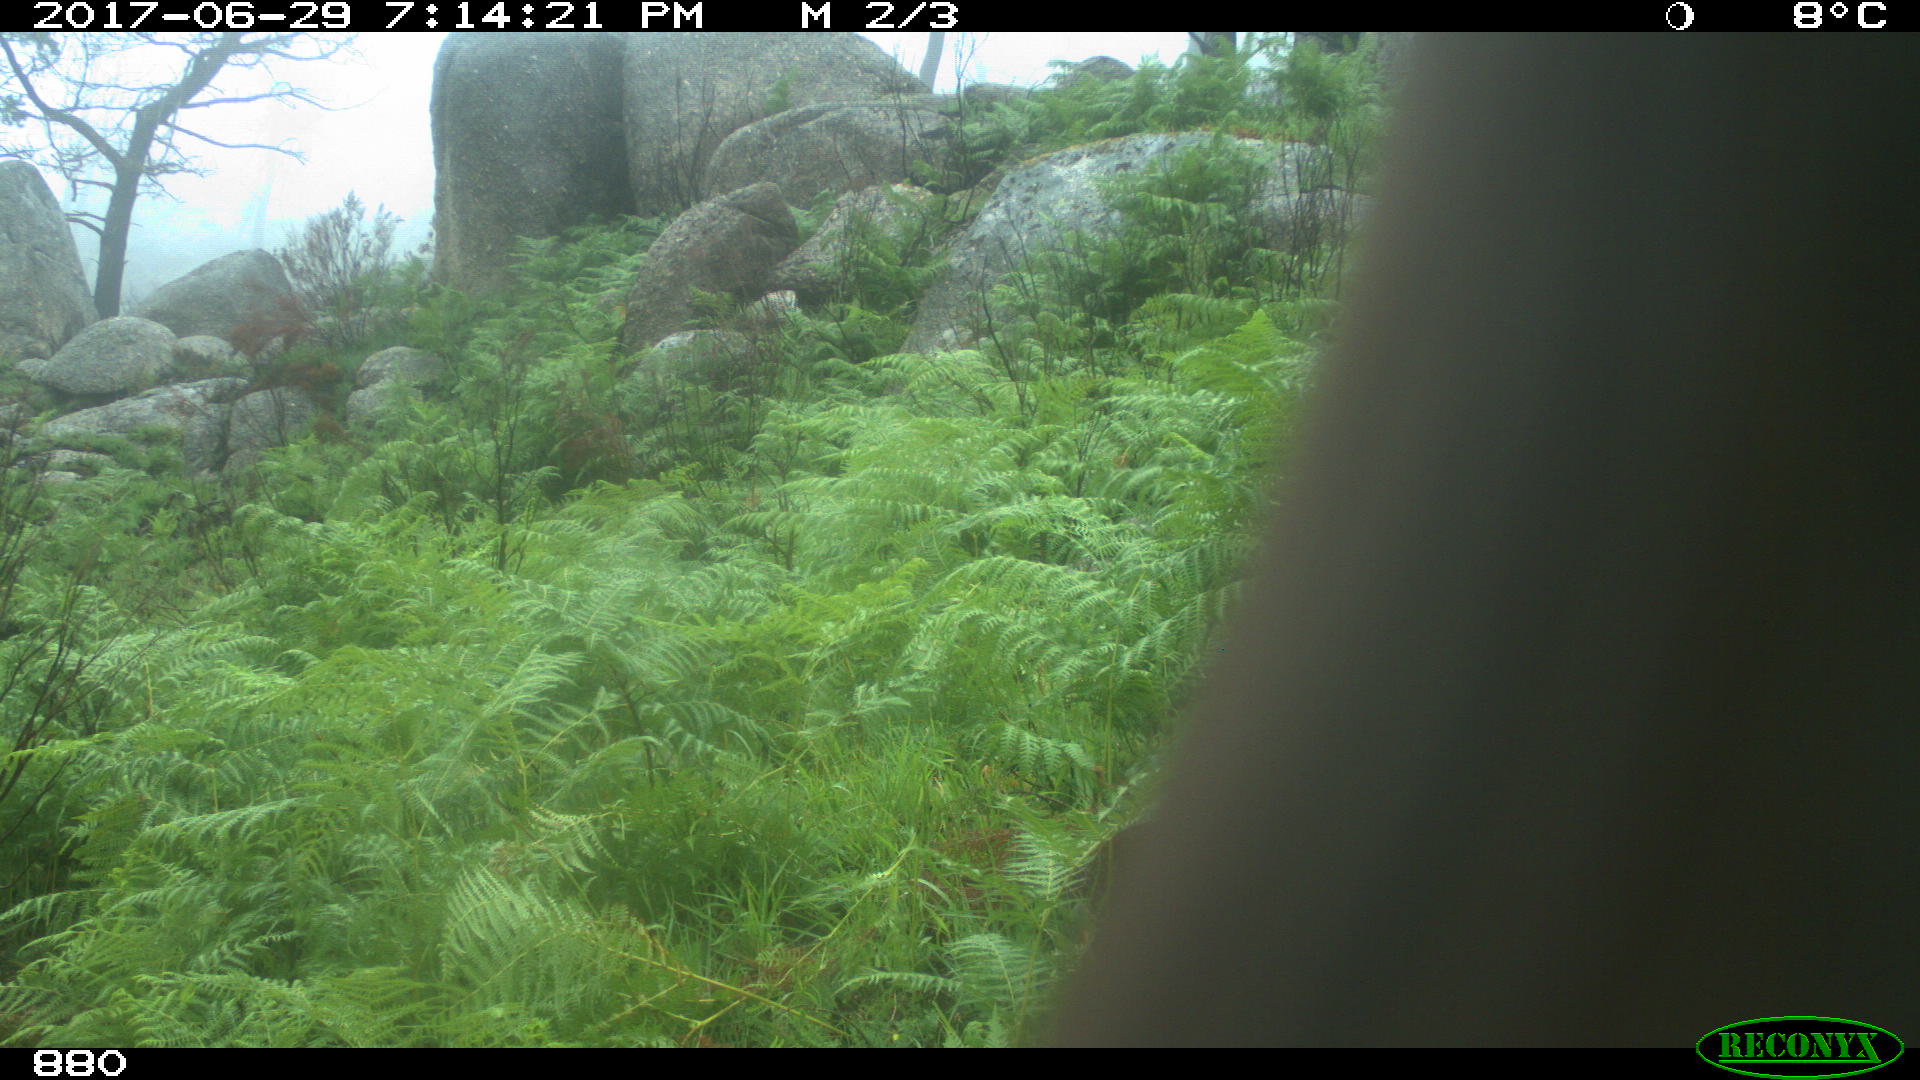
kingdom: Animalia
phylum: Chordata
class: Mammalia
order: Perissodactyla
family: Equidae
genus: Equus
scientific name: Equus caballus
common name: Horse
